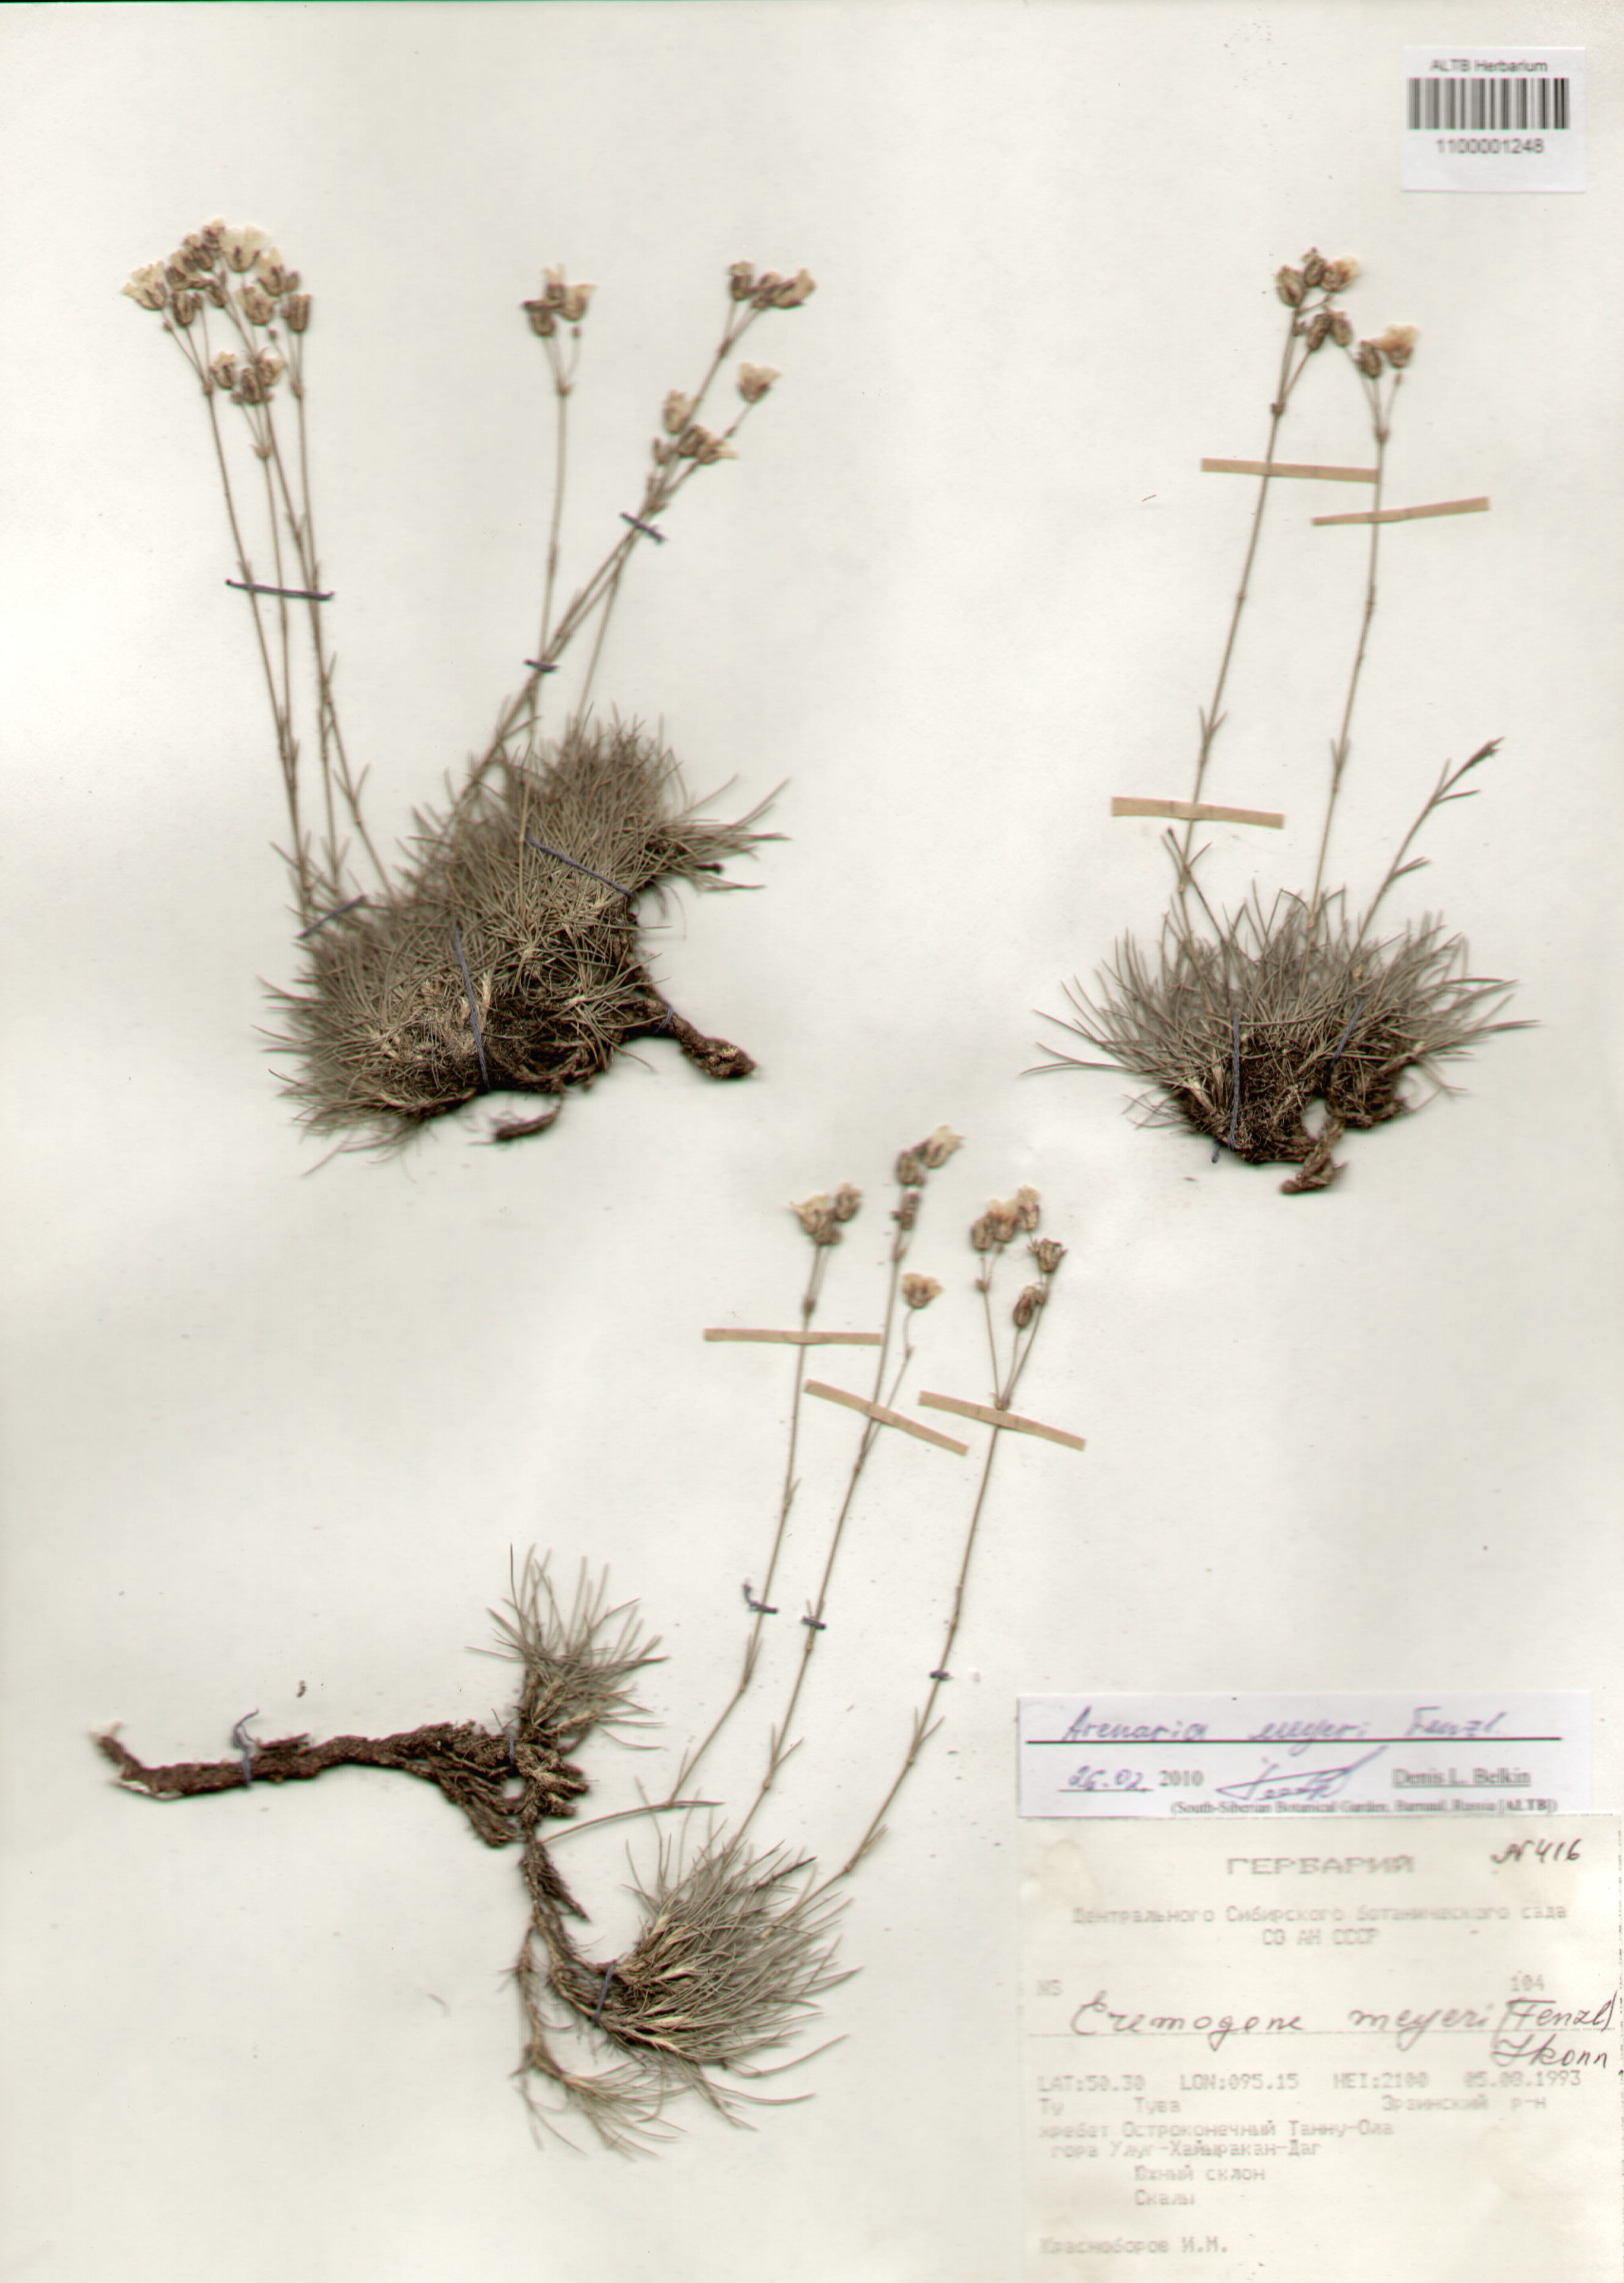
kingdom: Plantae
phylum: Tracheophyta
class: Magnoliopsida
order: Caryophyllales
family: Caryophyllaceae
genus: Eremogone
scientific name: Eremogone meyeri
